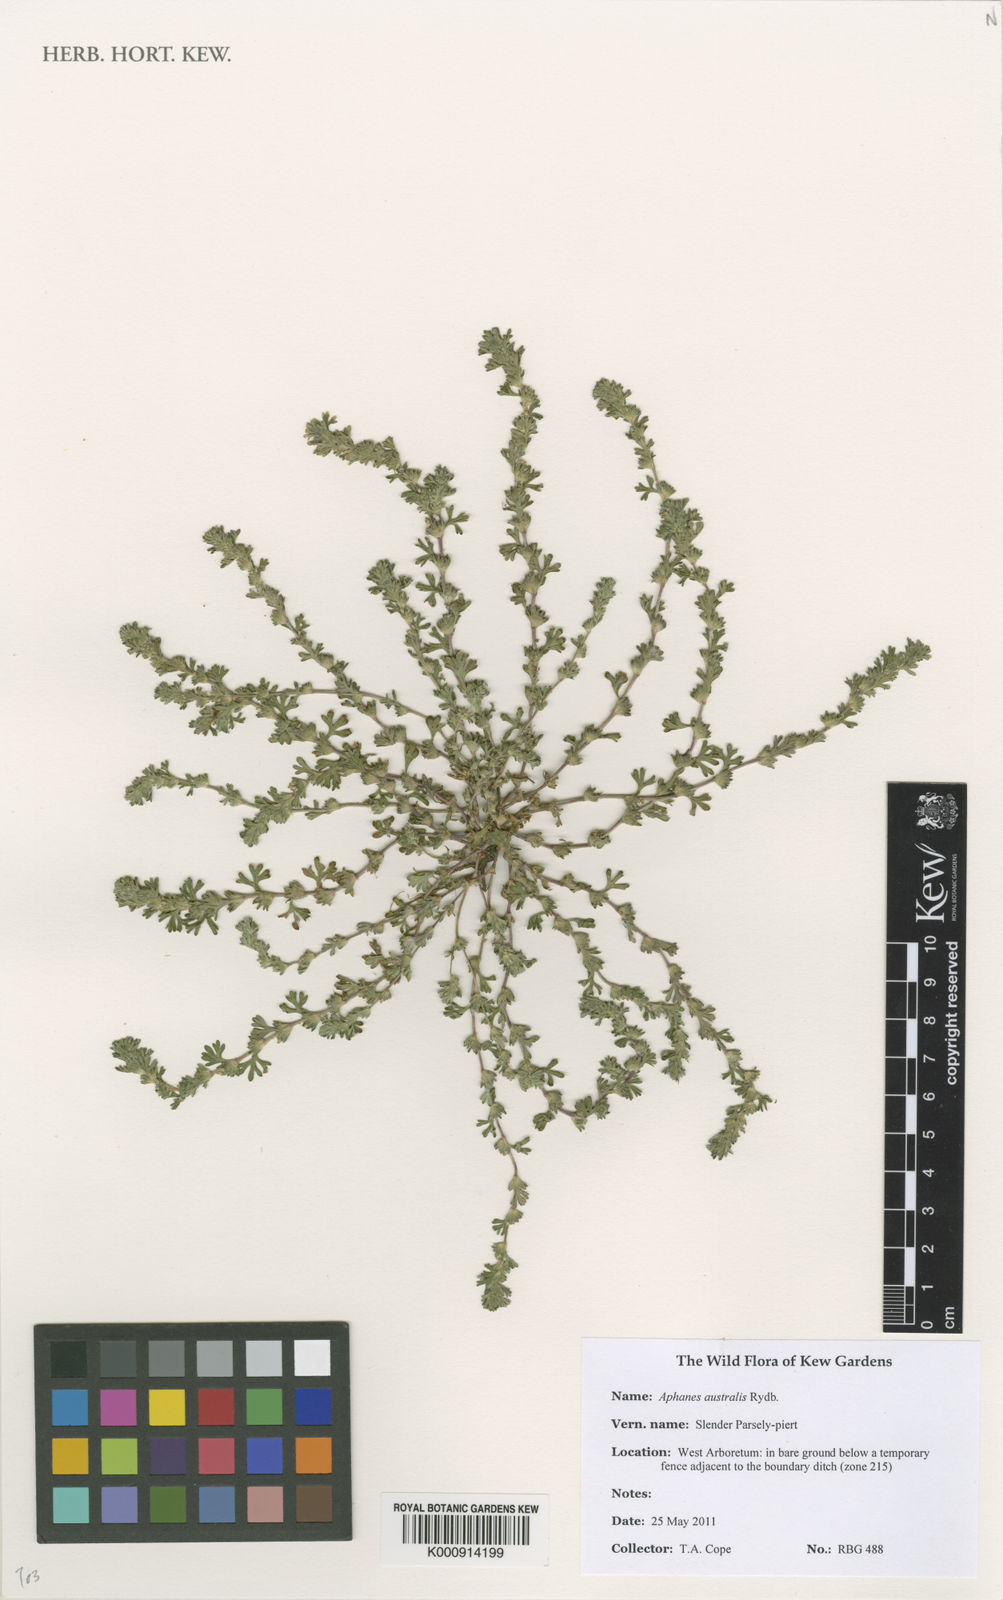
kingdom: Plantae
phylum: Tracheophyta
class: Magnoliopsida
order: Rosales
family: Rosaceae
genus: Aphanes
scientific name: Aphanes australis
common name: Slender parsley-piert
